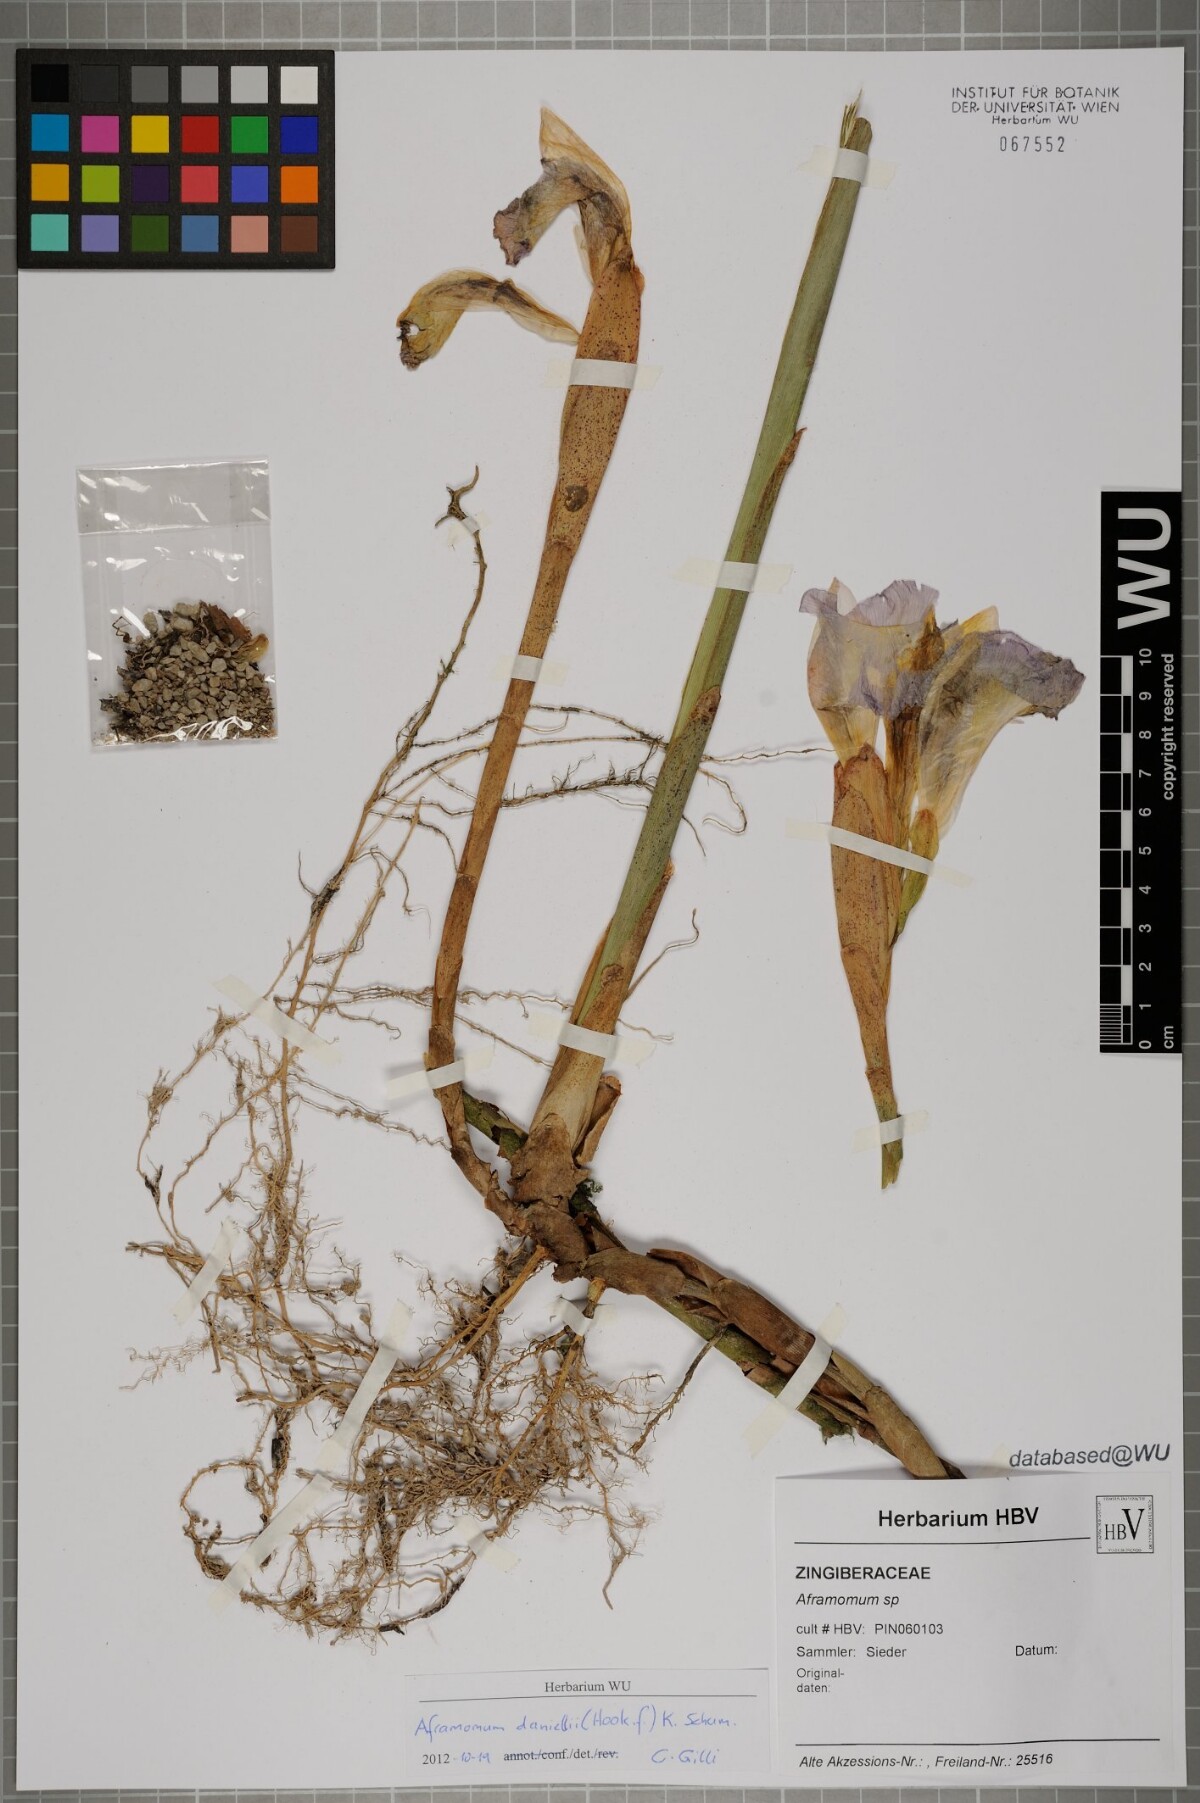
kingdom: Plantae
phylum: Tracheophyta
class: Liliopsida
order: Zingiberales
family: Zingiberaceae
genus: Aframomum
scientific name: Aframomum
